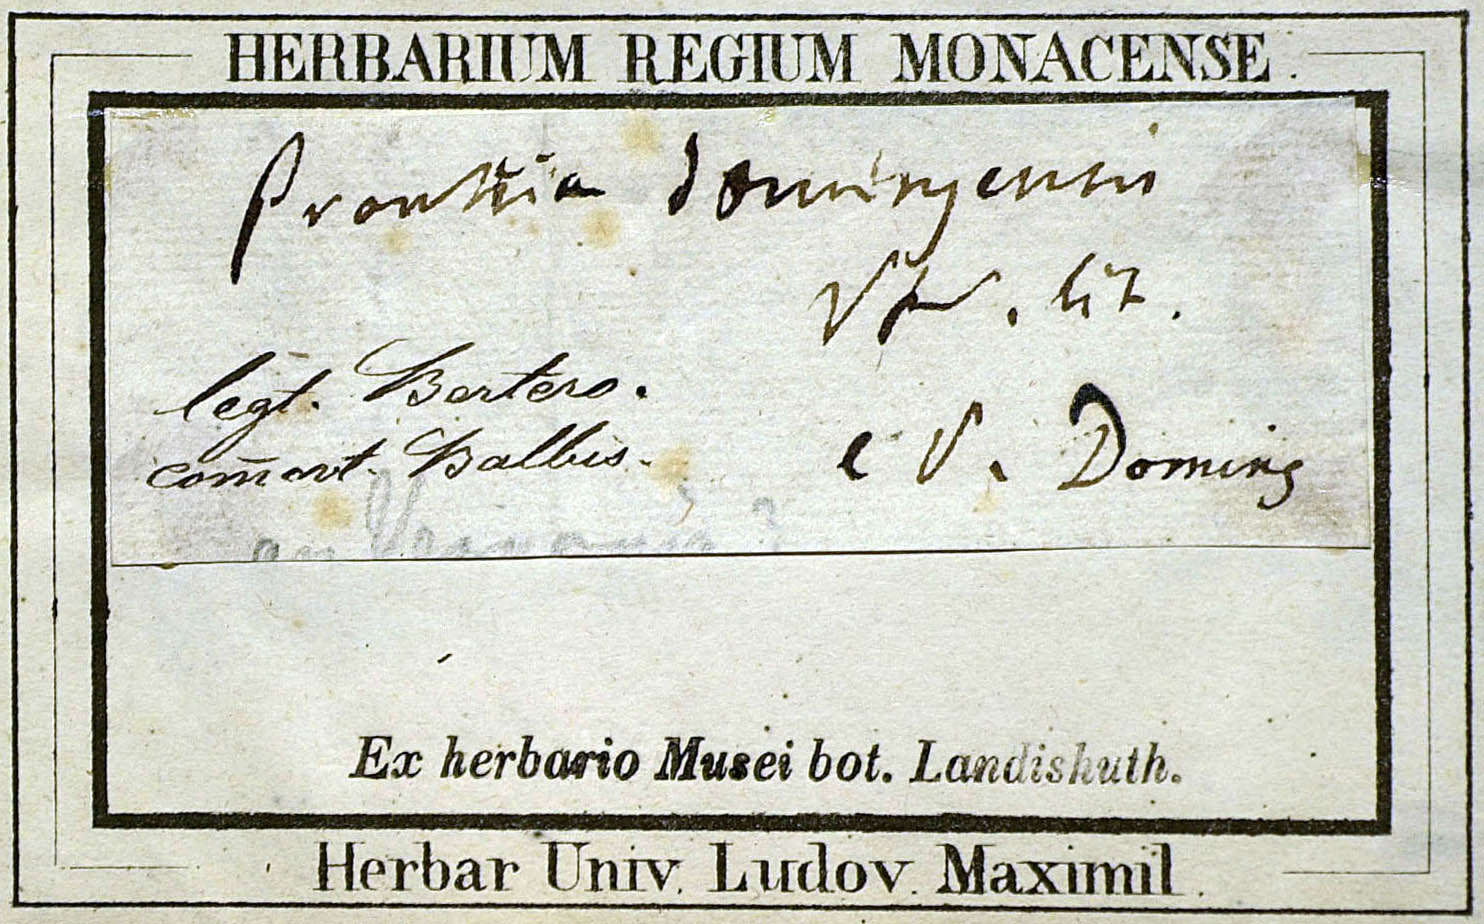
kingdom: Plantae
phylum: Tracheophyta
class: Magnoliopsida
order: Asterales
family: Asteraceae
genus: Vernonanthura
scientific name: Vernonanthura buxifolia
